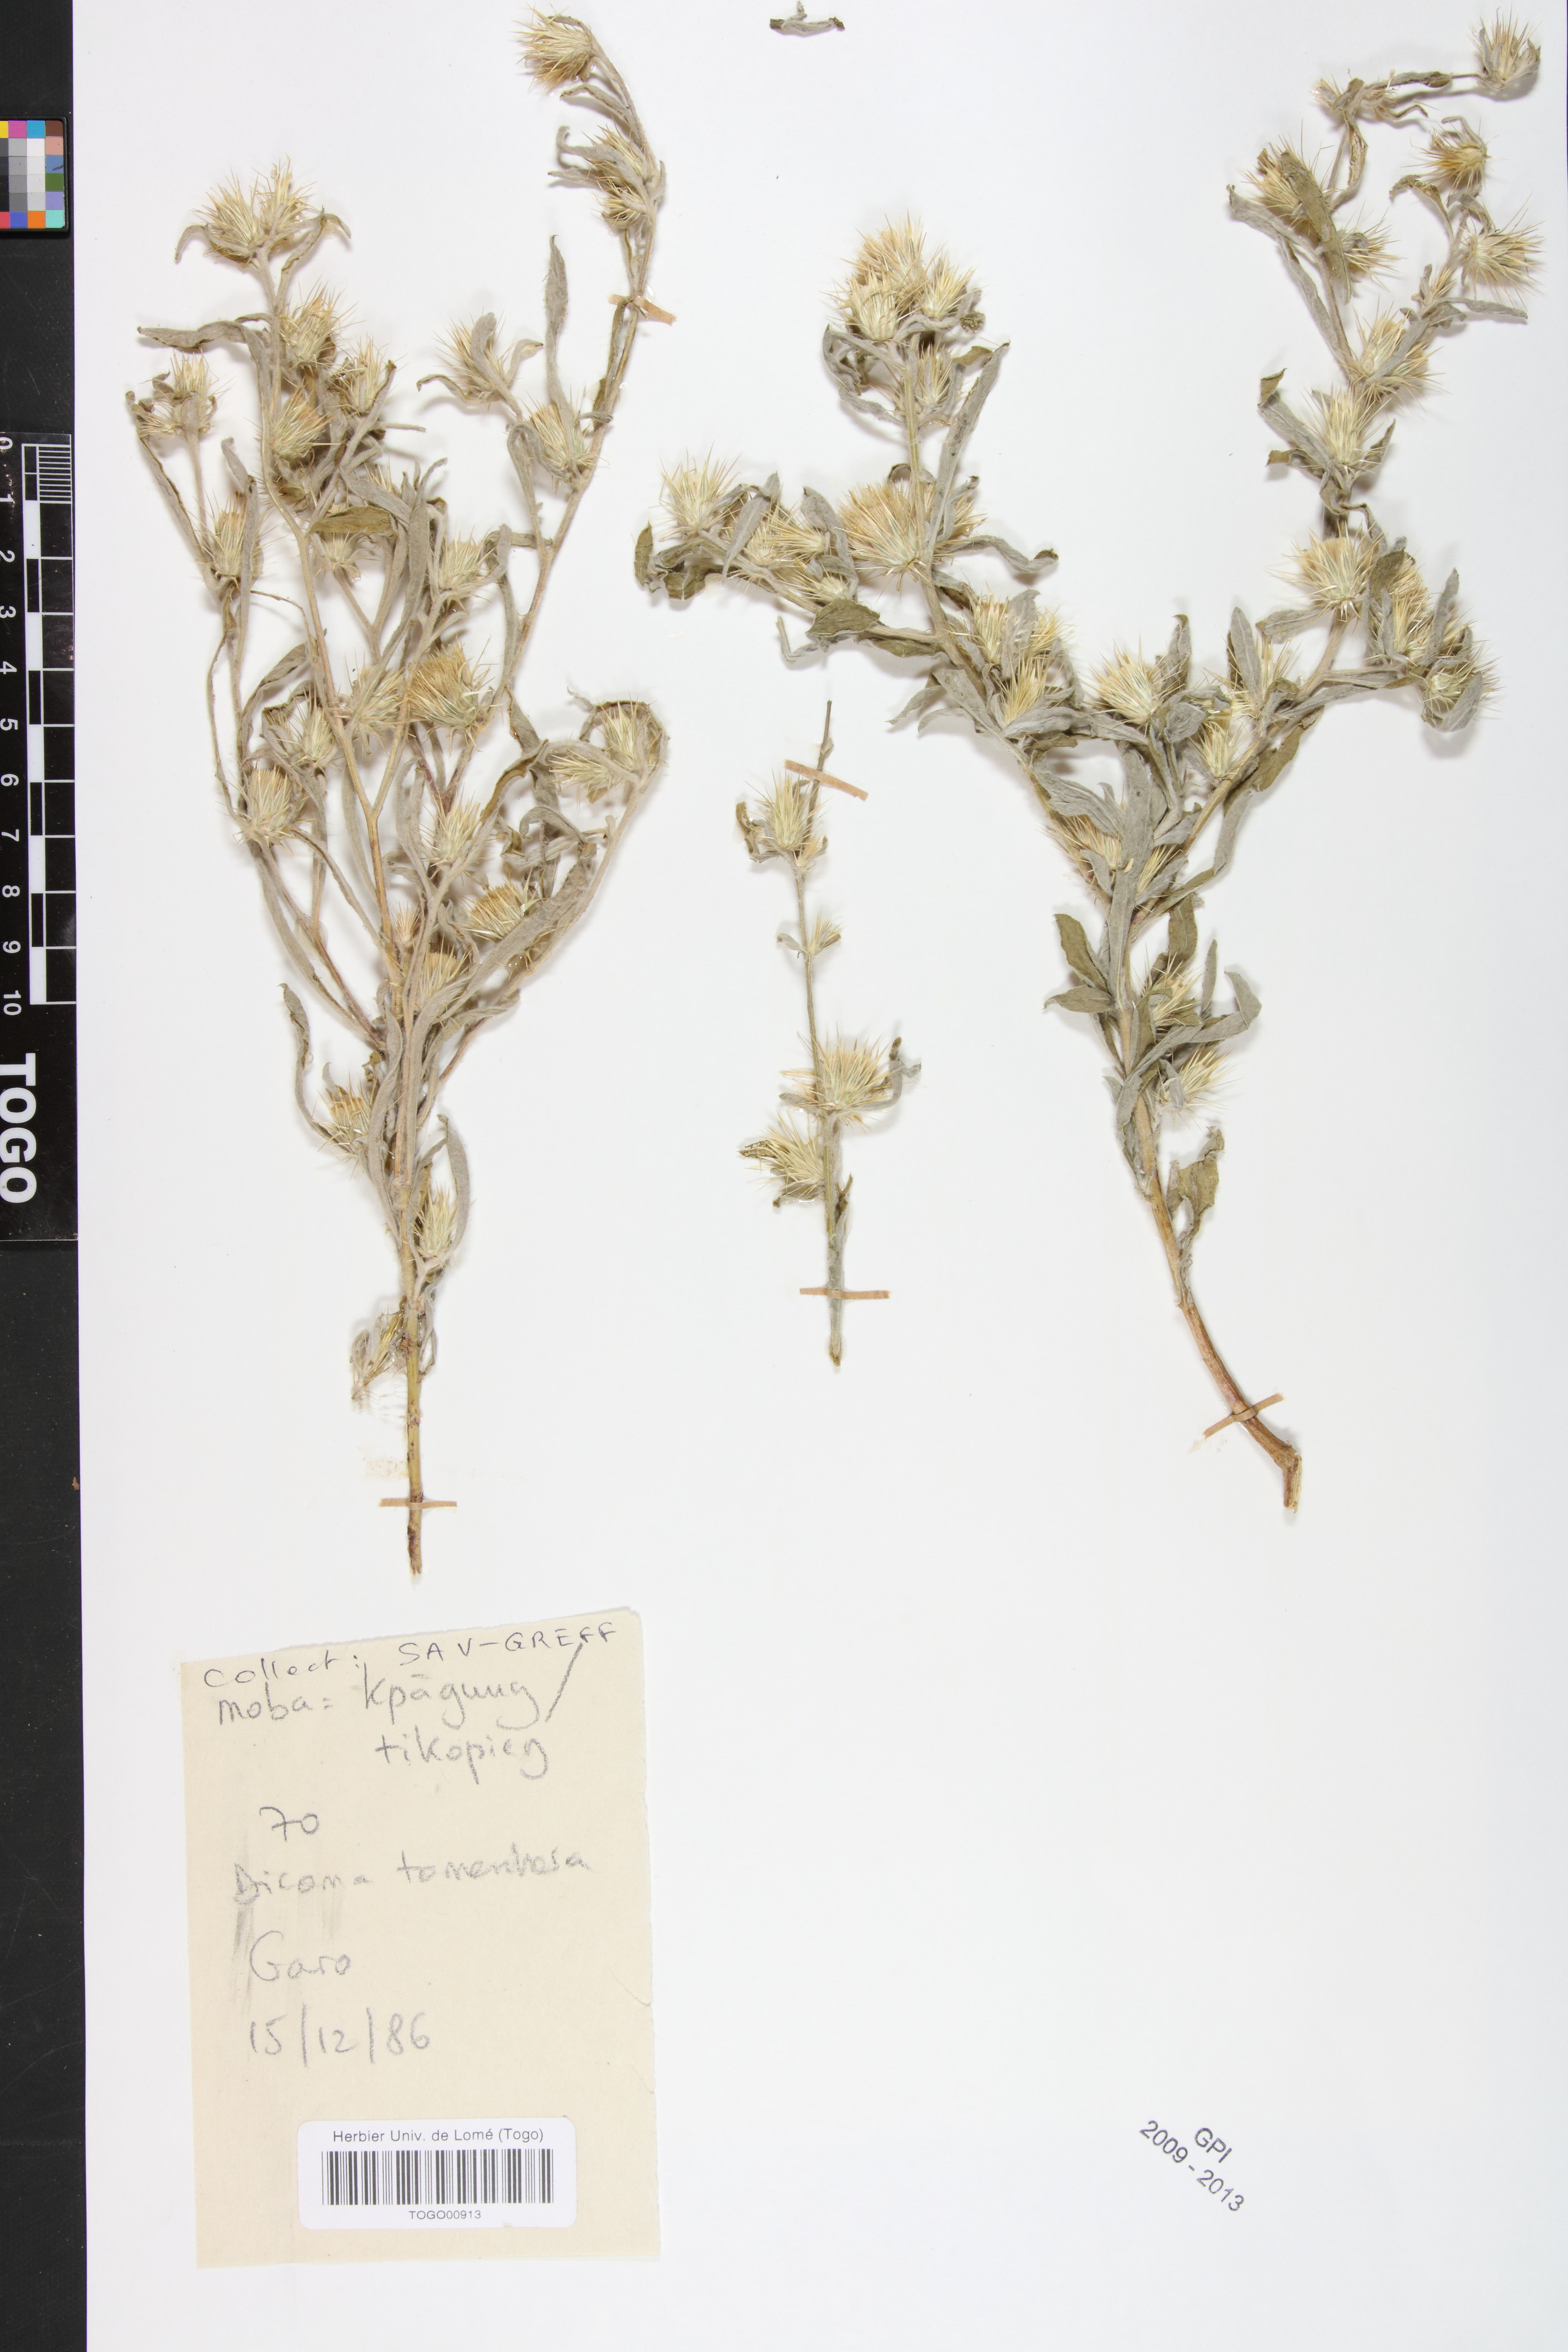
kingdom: Plantae
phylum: Tracheophyta
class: Magnoliopsida
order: Asterales
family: Asteraceae
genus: Dicoma
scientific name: Dicoma tomentosa
